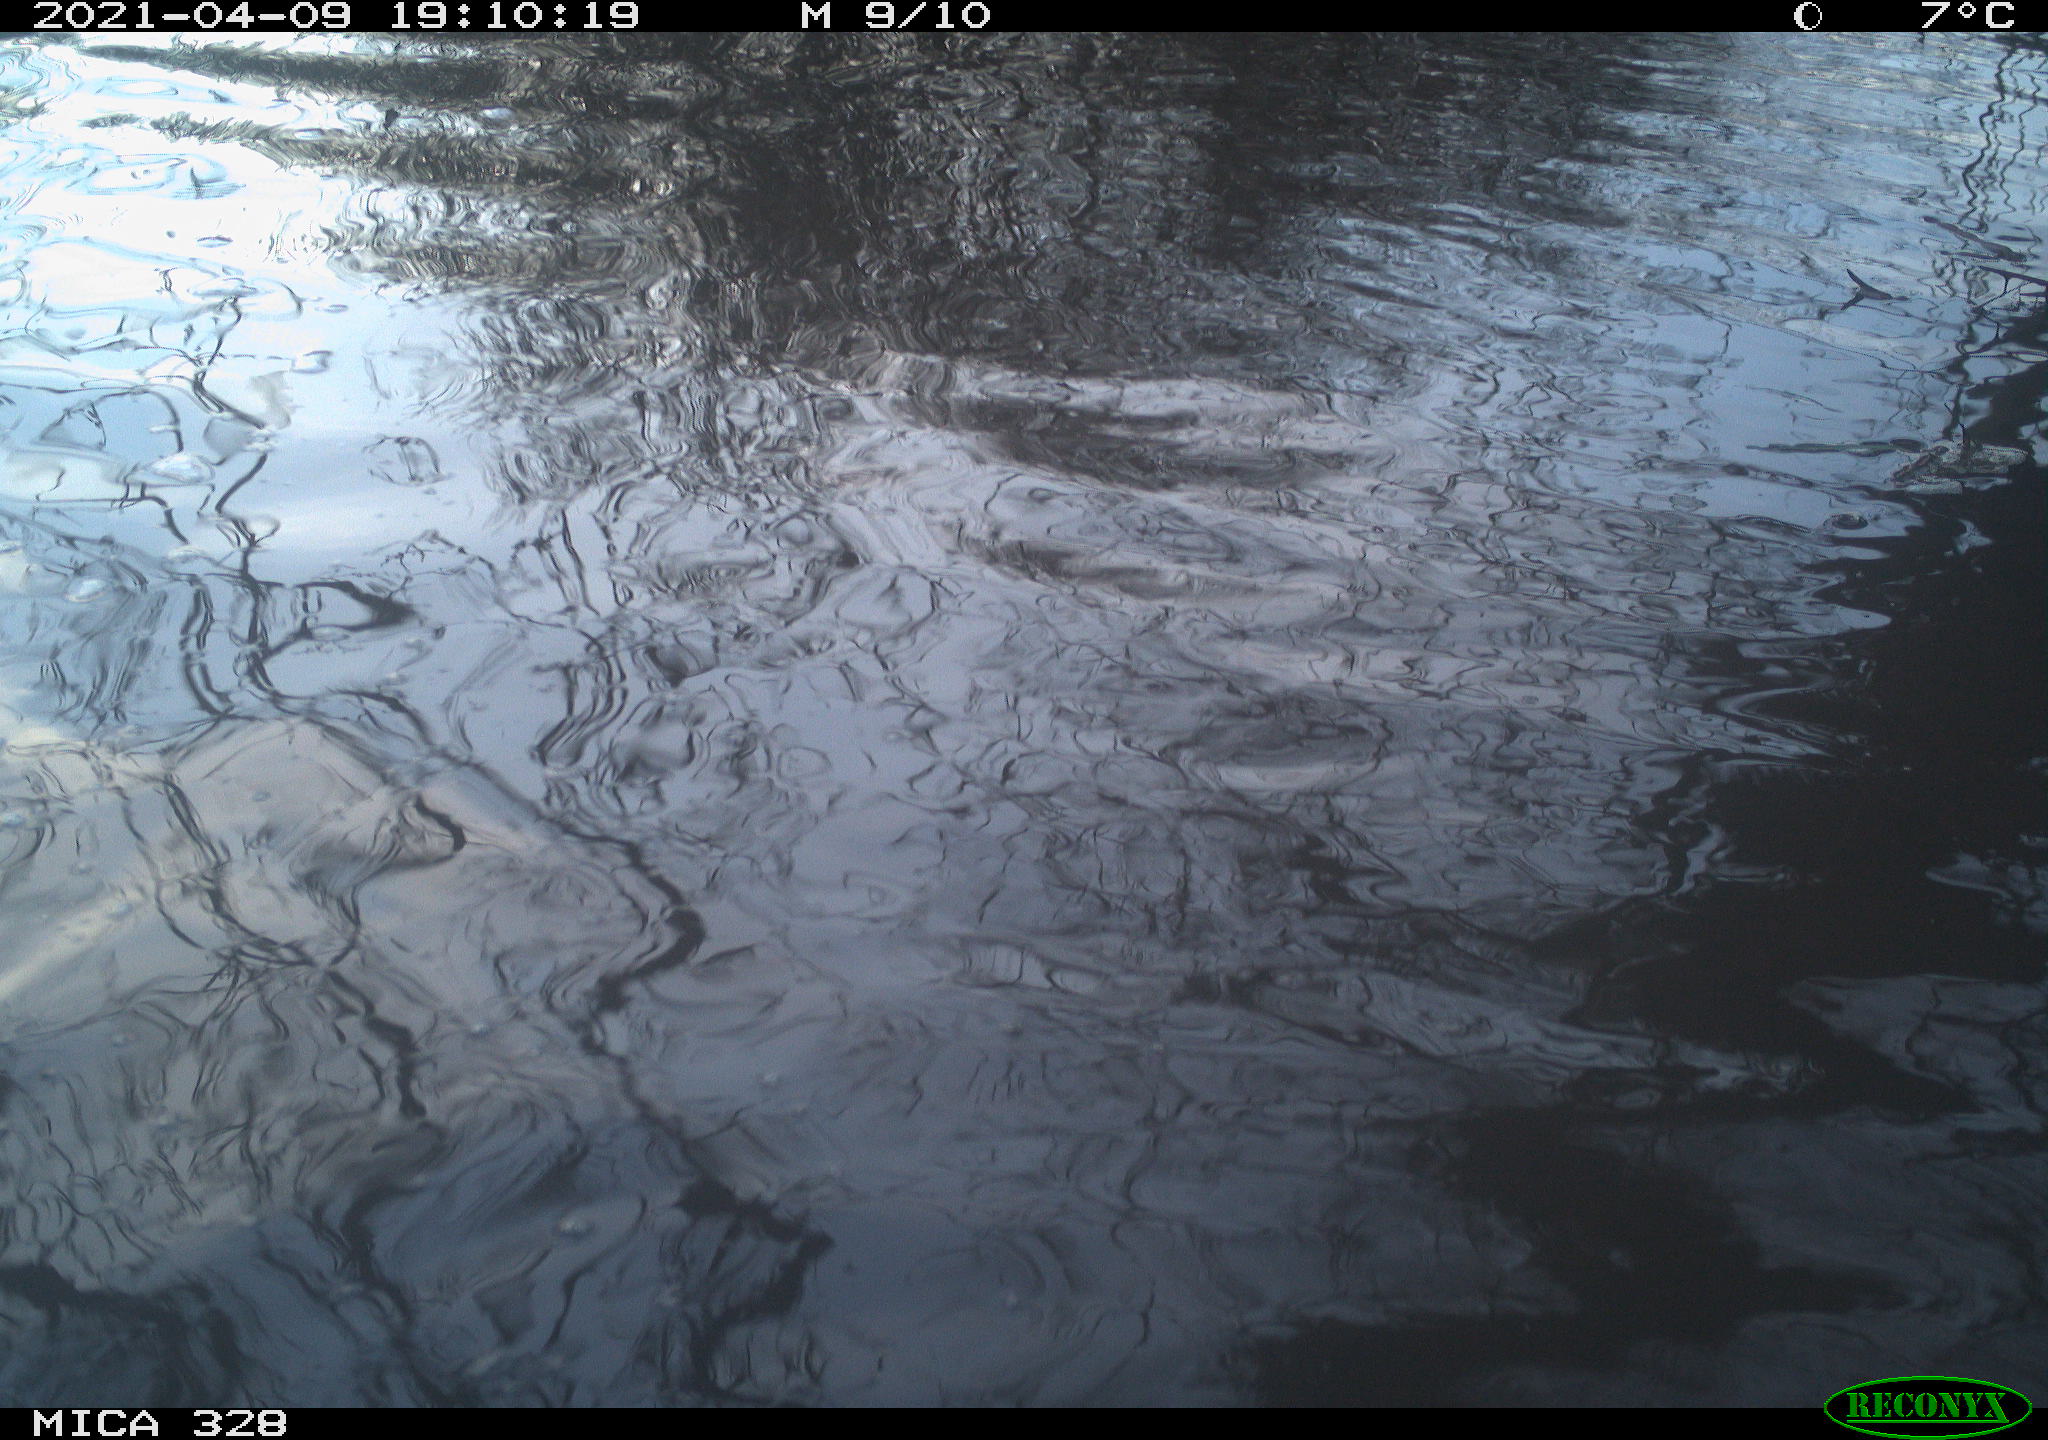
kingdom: Animalia
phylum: Chordata
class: Mammalia
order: Rodentia
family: Cricetidae
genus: Ondatra
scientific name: Ondatra zibethicus
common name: Muskrat
